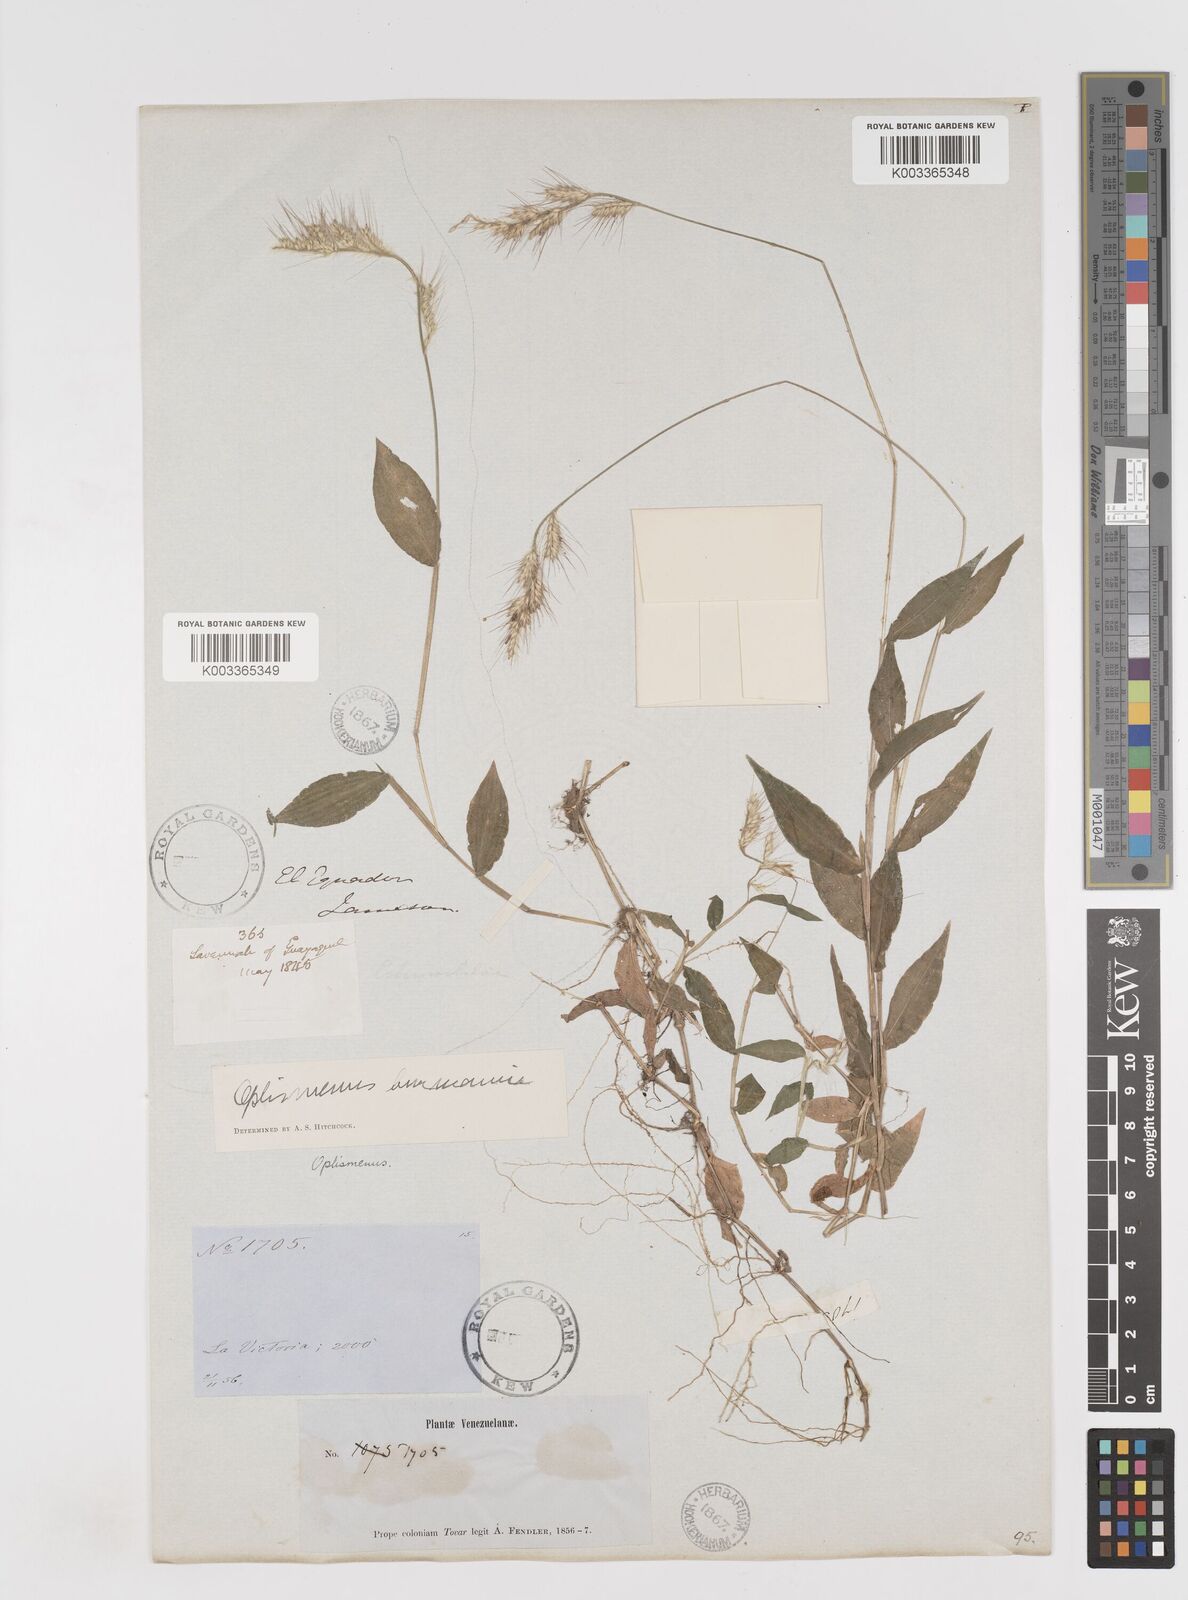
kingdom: Plantae
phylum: Tracheophyta
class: Liliopsida
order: Poales
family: Poaceae
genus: Oplismenus
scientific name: Oplismenus burmanni
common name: Burmann's basketgrass
